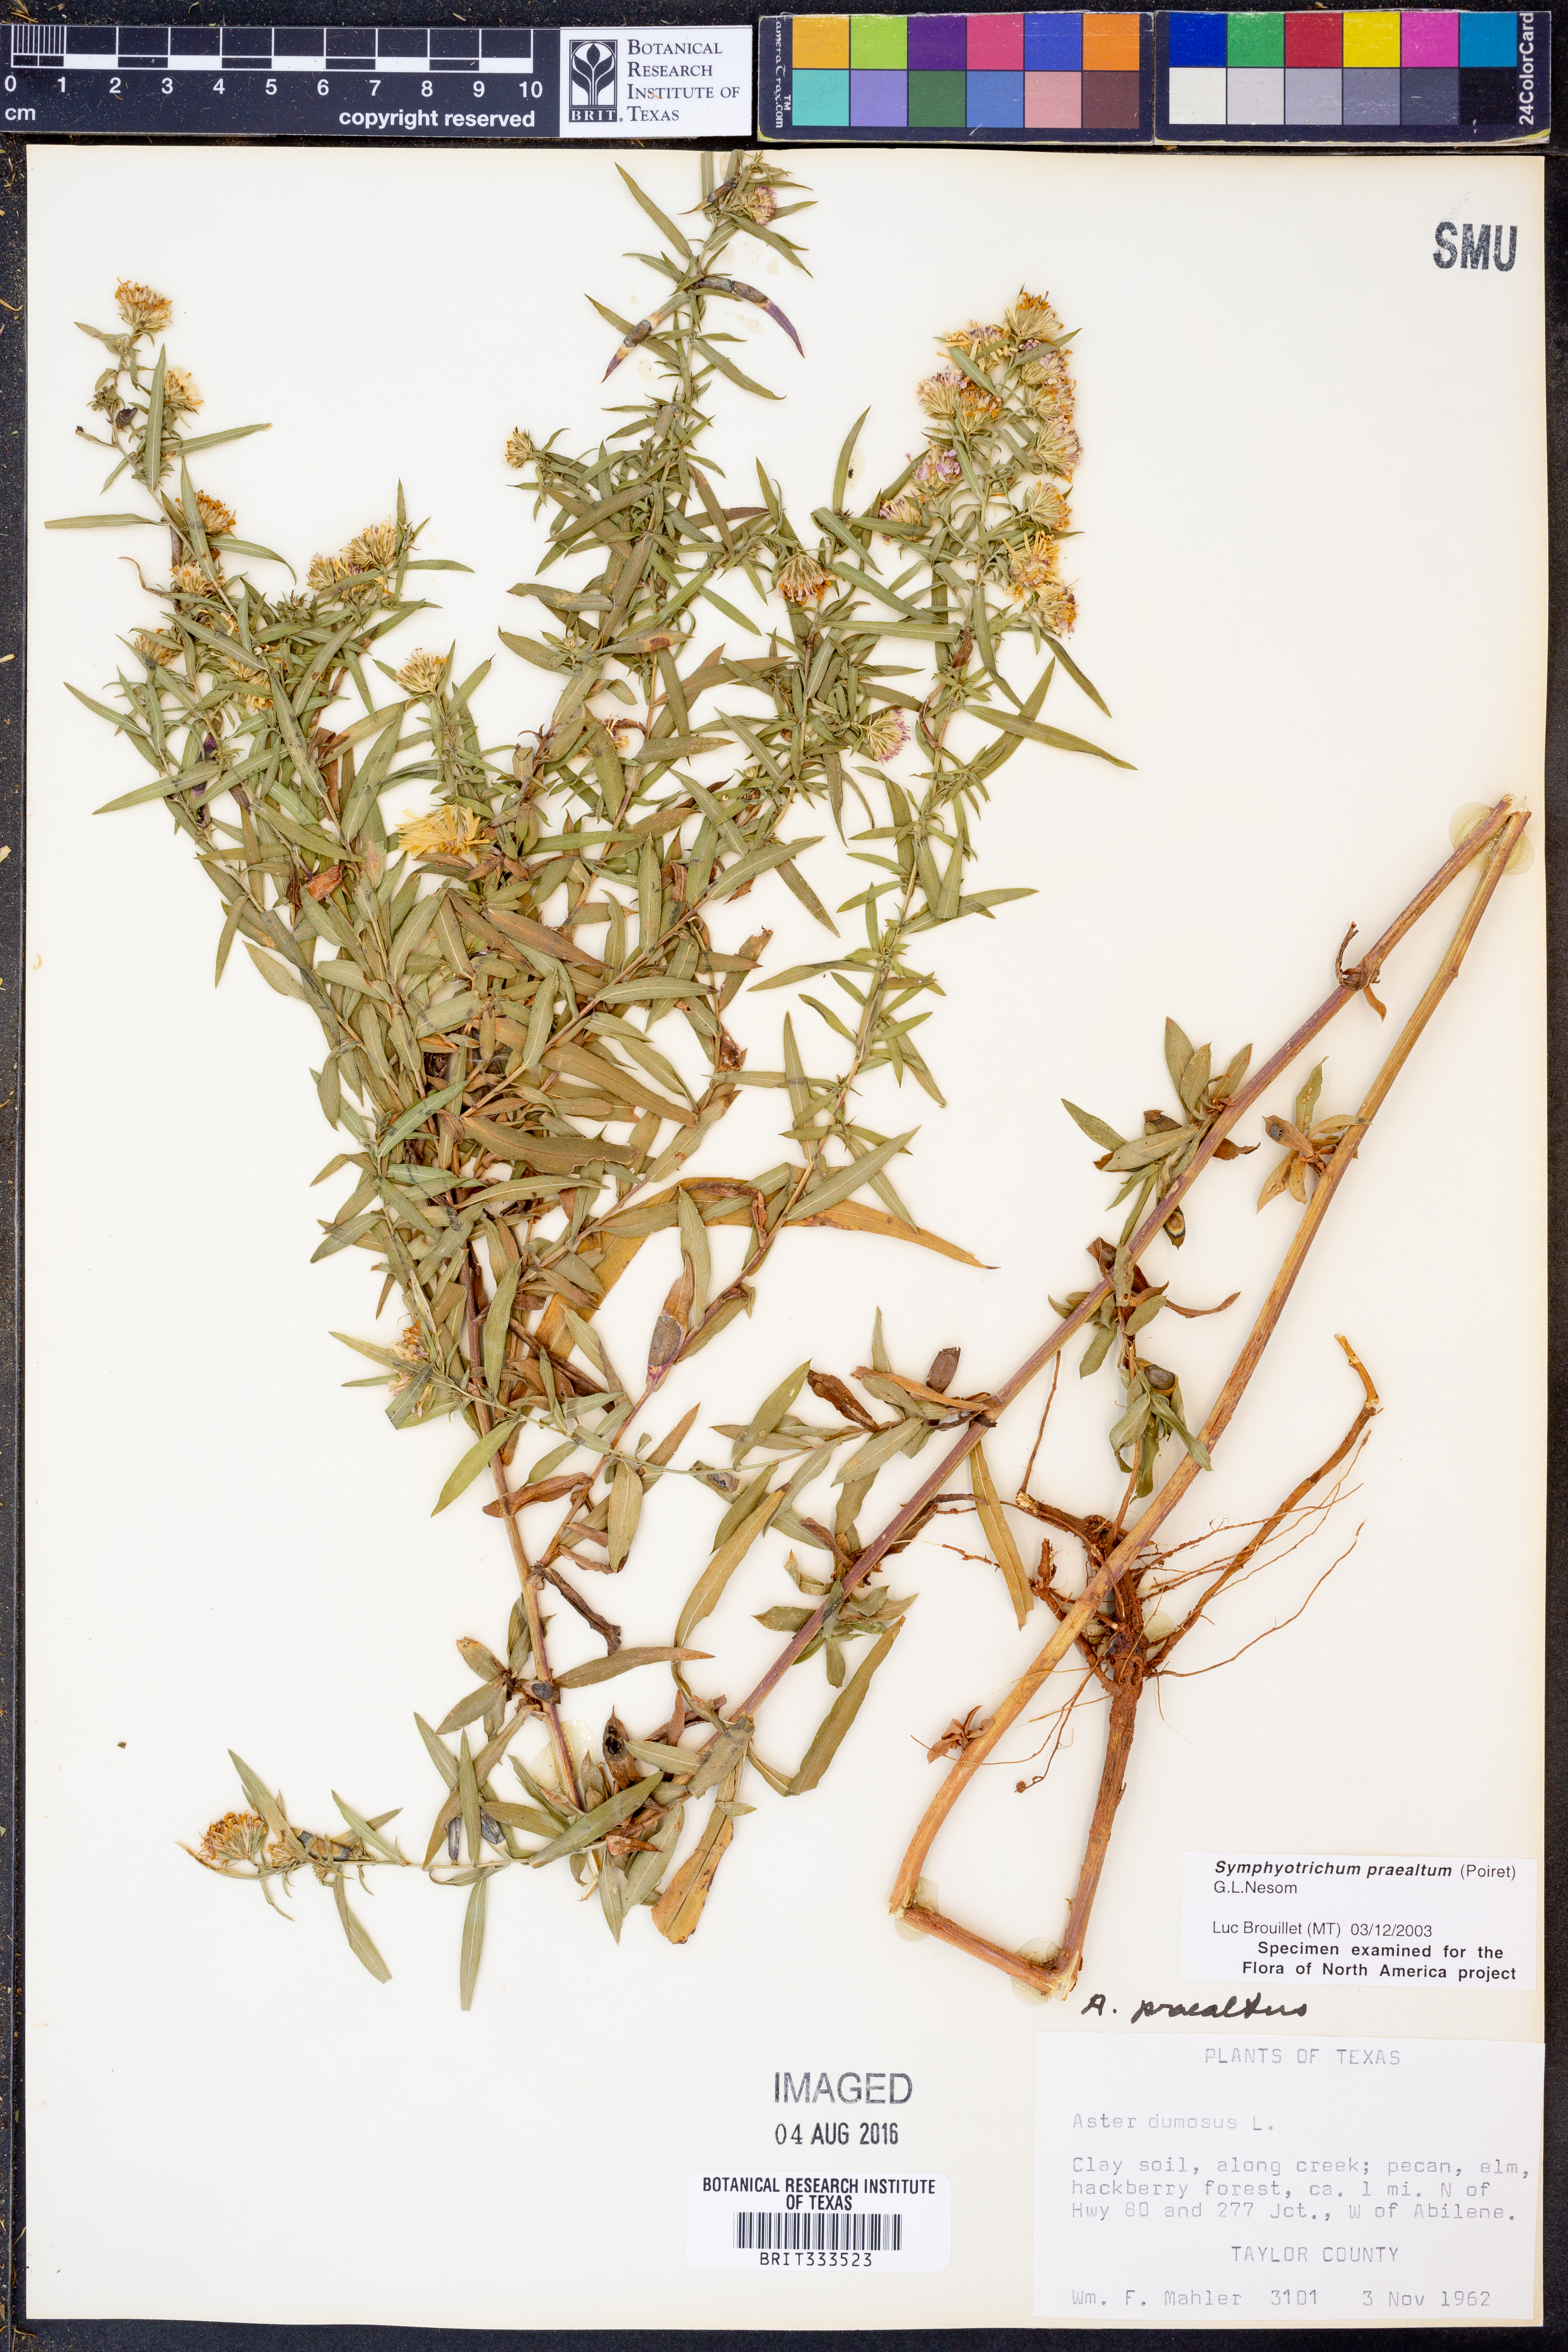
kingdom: Plantae
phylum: Tracheophyta
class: Magnoliopsida
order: Asterales
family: Asteraceae
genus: Symphyotrichum
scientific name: Symphyotrichum praealtum
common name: Willow aster
